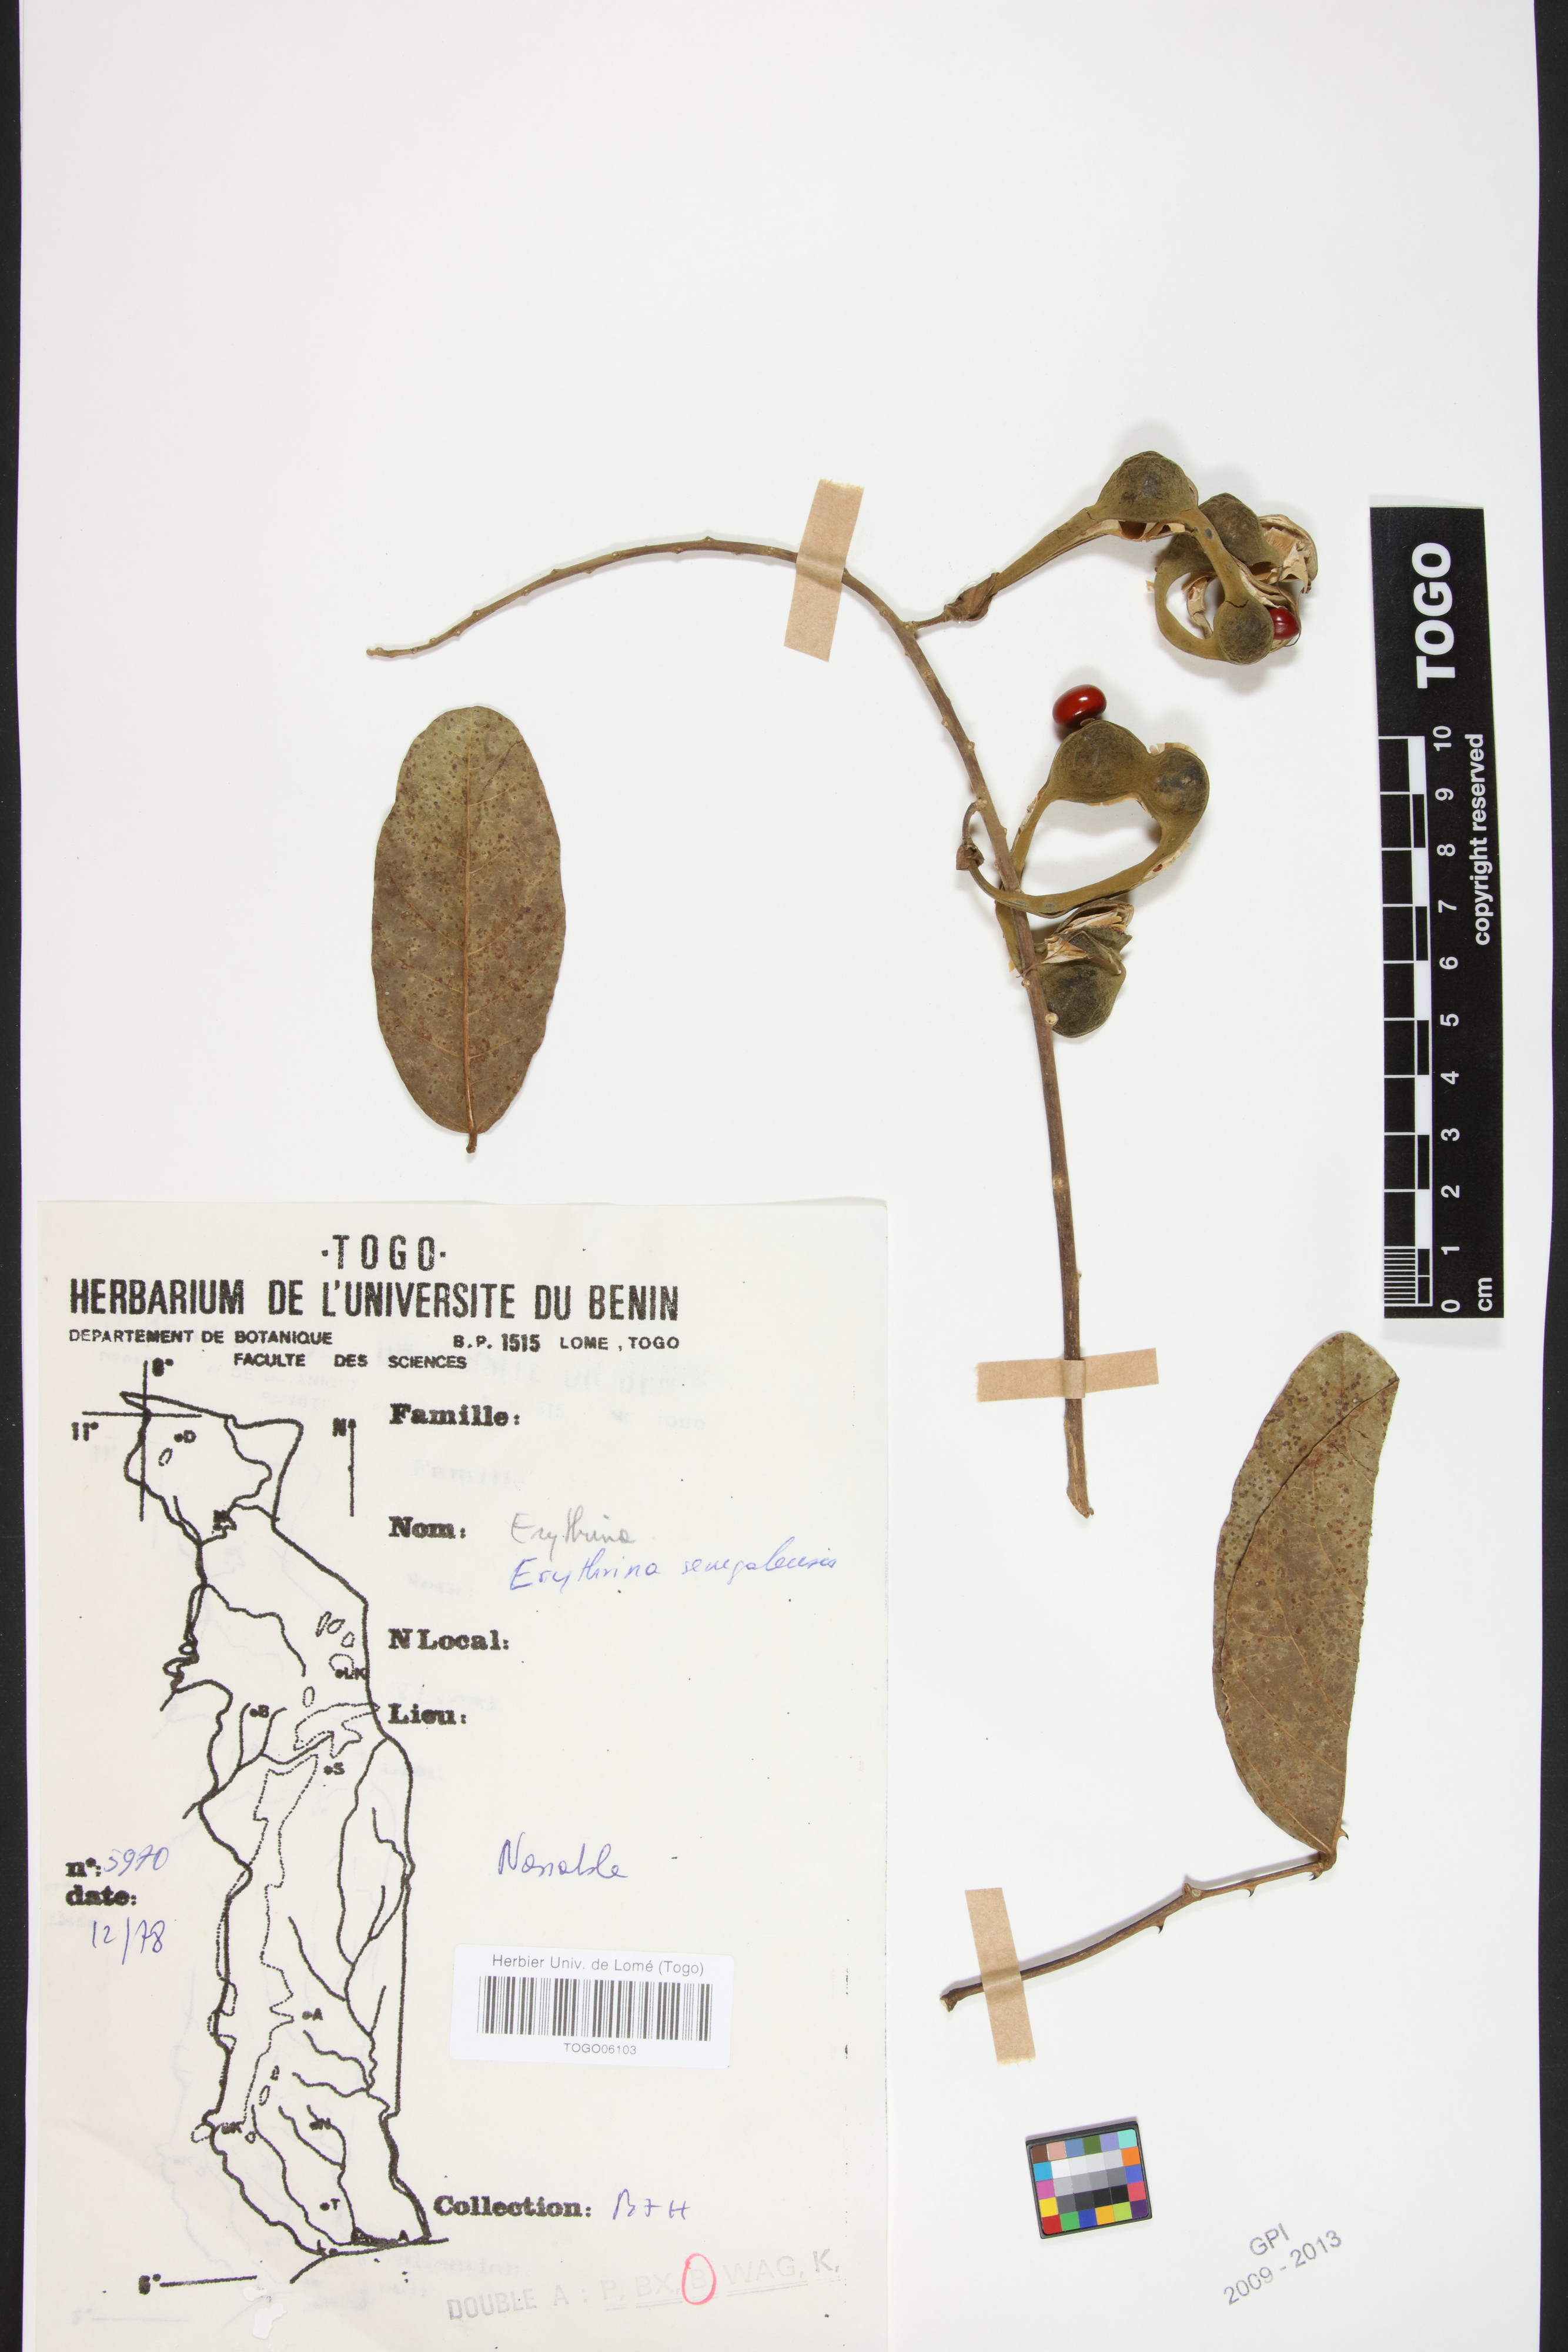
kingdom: Plantae
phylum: Tracheophyta
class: Magnoliopsida
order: Fabales
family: Fabaceae
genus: Erythrina
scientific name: Erythrina senegalensis
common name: Senegal coraltree
